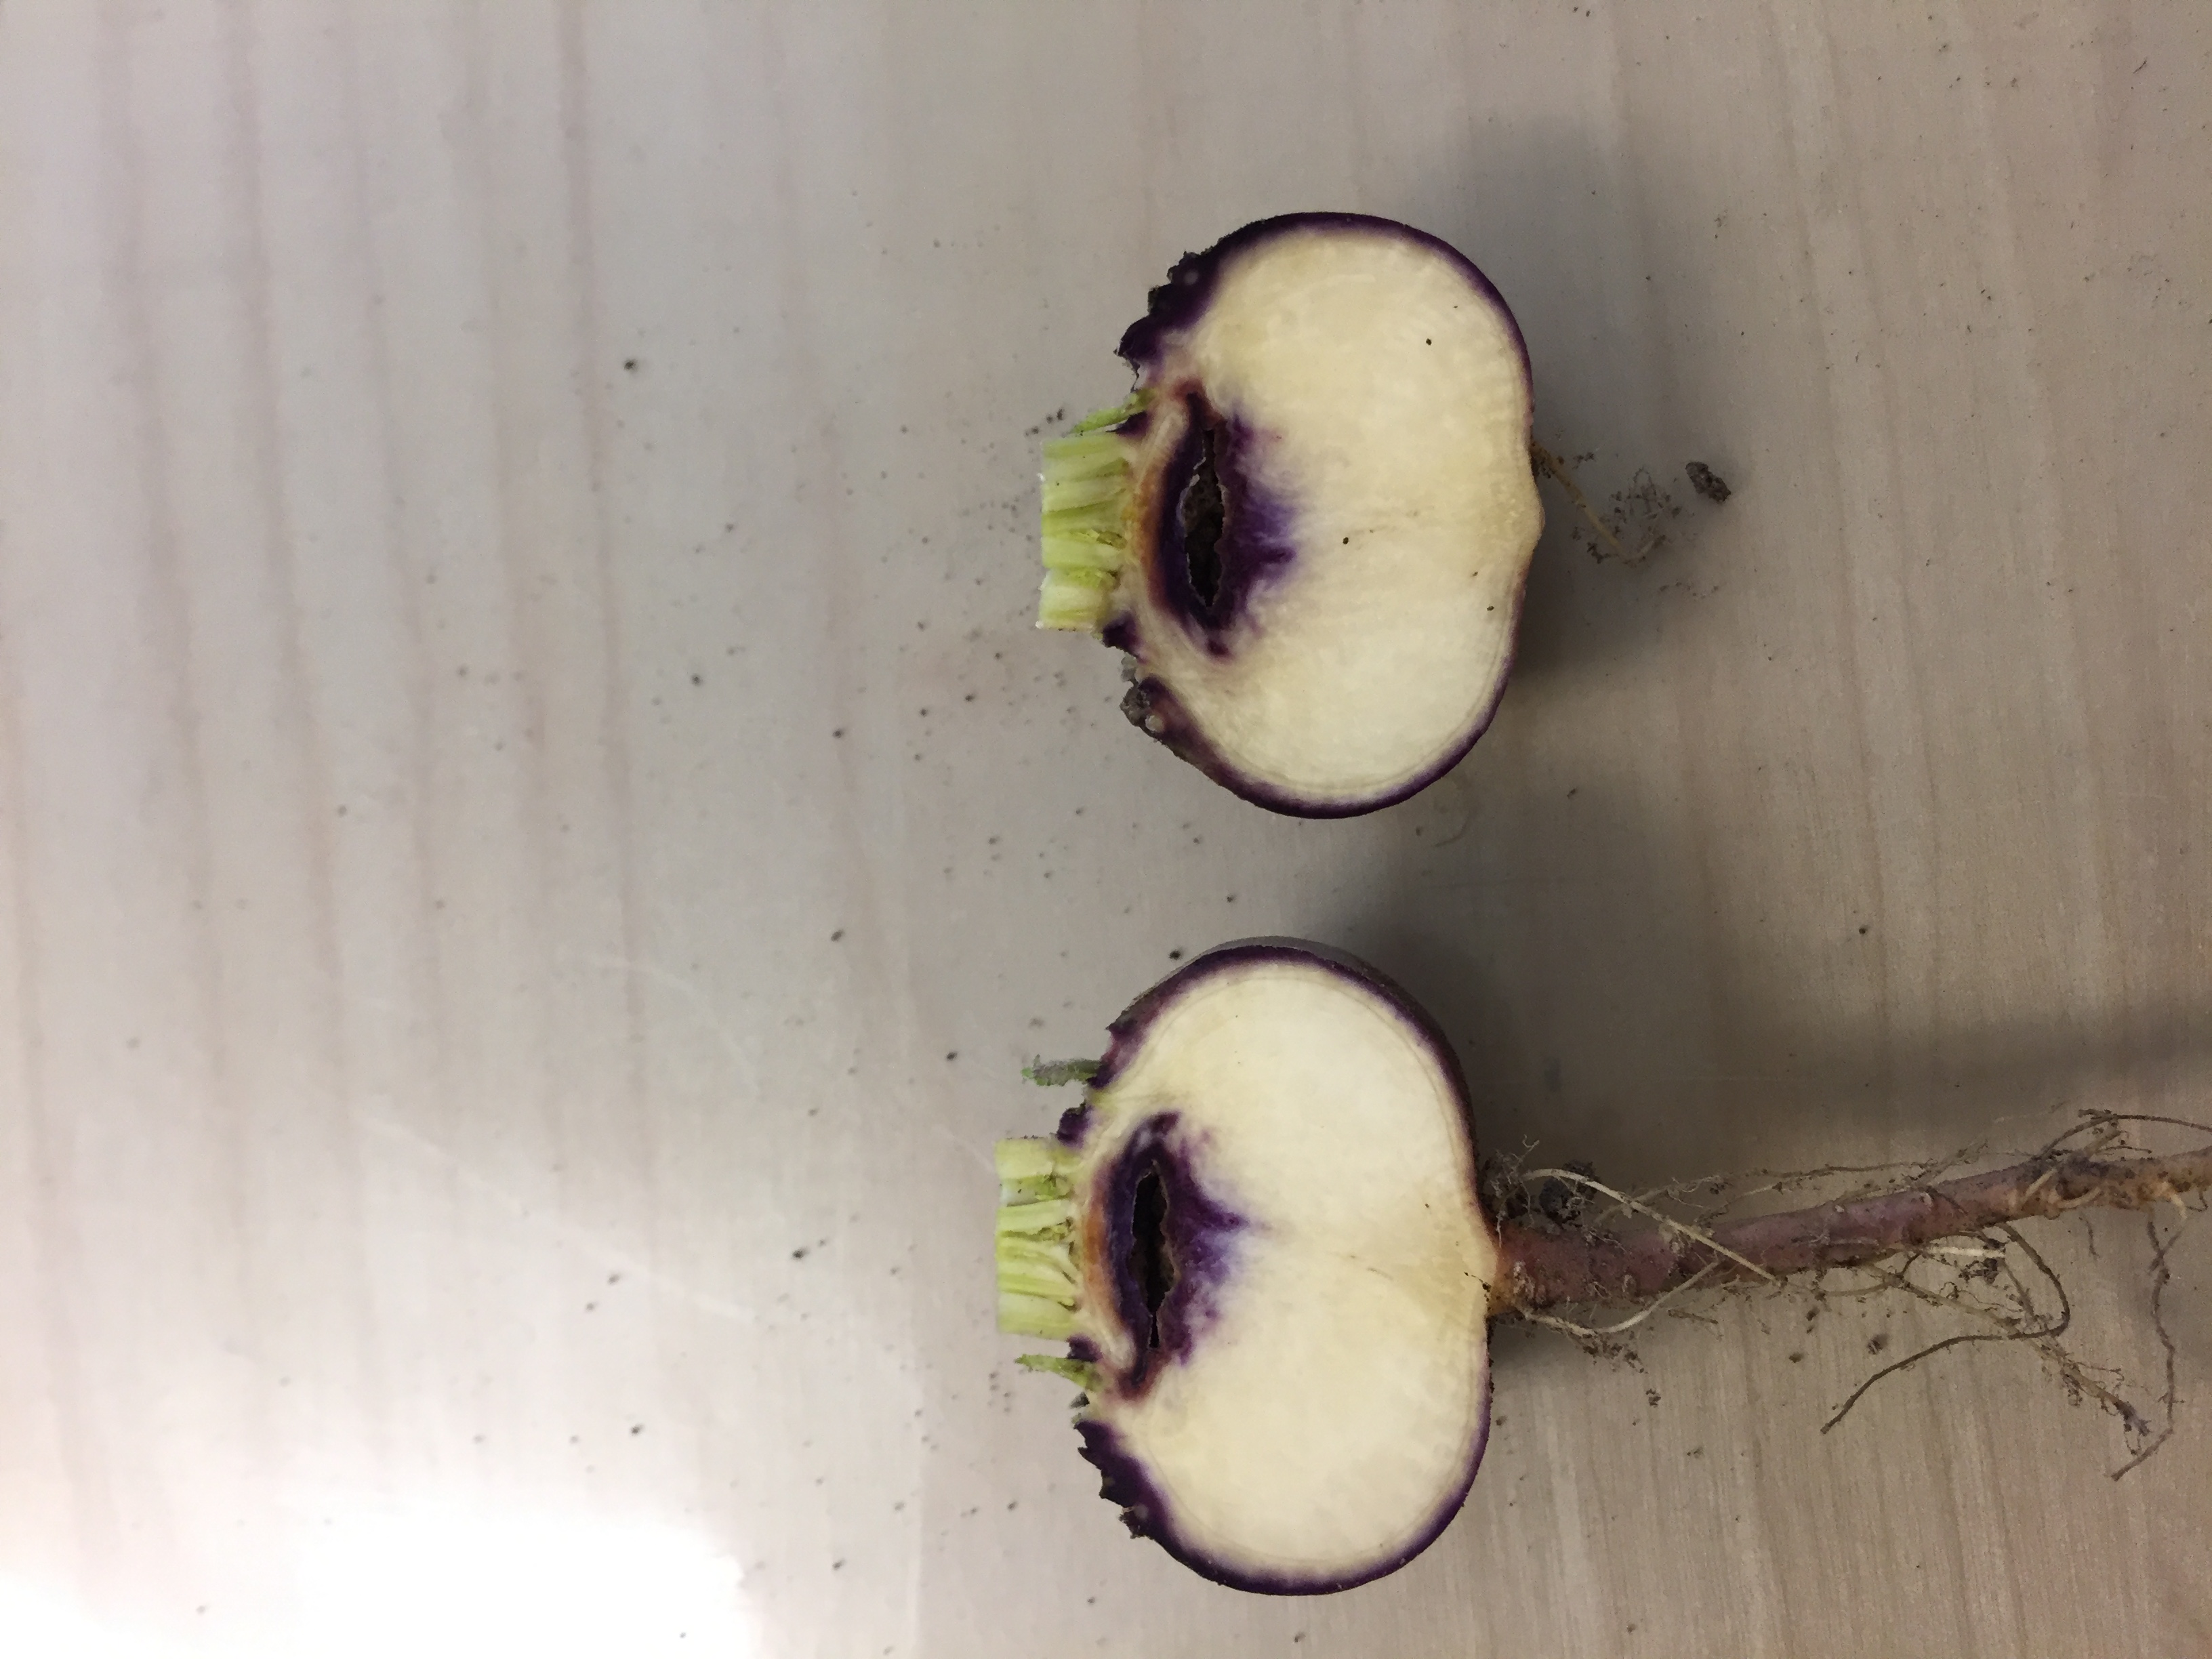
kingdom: Plantae
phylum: Tracheophyta
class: Magnoliopsida
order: Brassicales
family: Brassicaceae
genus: Brassica
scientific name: Brassica rapa
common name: Field mustard
